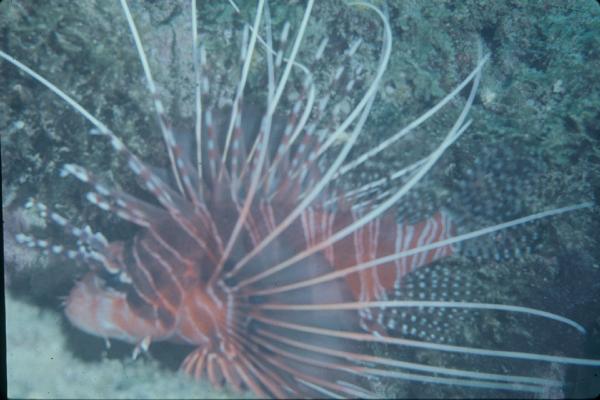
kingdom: Animalia
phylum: Chordata
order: Scorpaeniformes
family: Scorpaenidae
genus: Pterois
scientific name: Pterois miles
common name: Devil firefish
